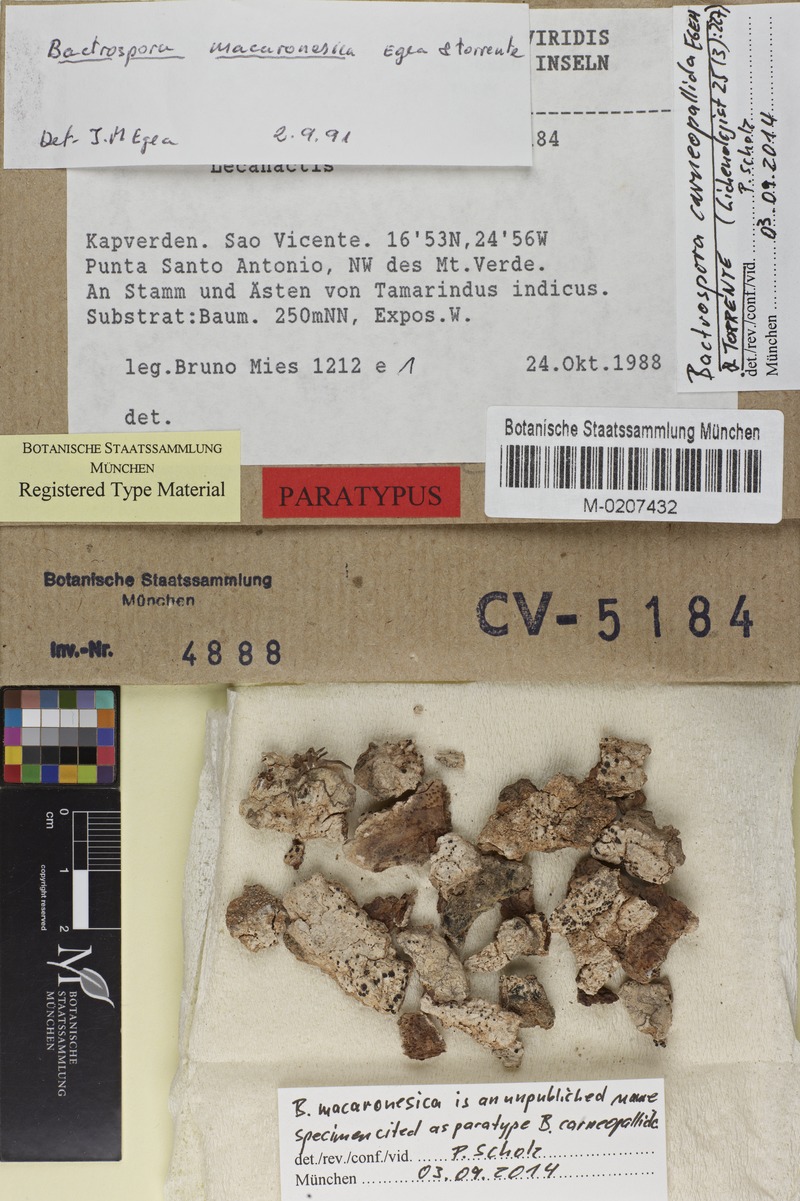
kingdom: Fungi
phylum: Ascomycota
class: Arthoniomycetes
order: Arthoniales
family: Roccellaceae
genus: Bactrospora
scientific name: Bactrospora carneopallida
